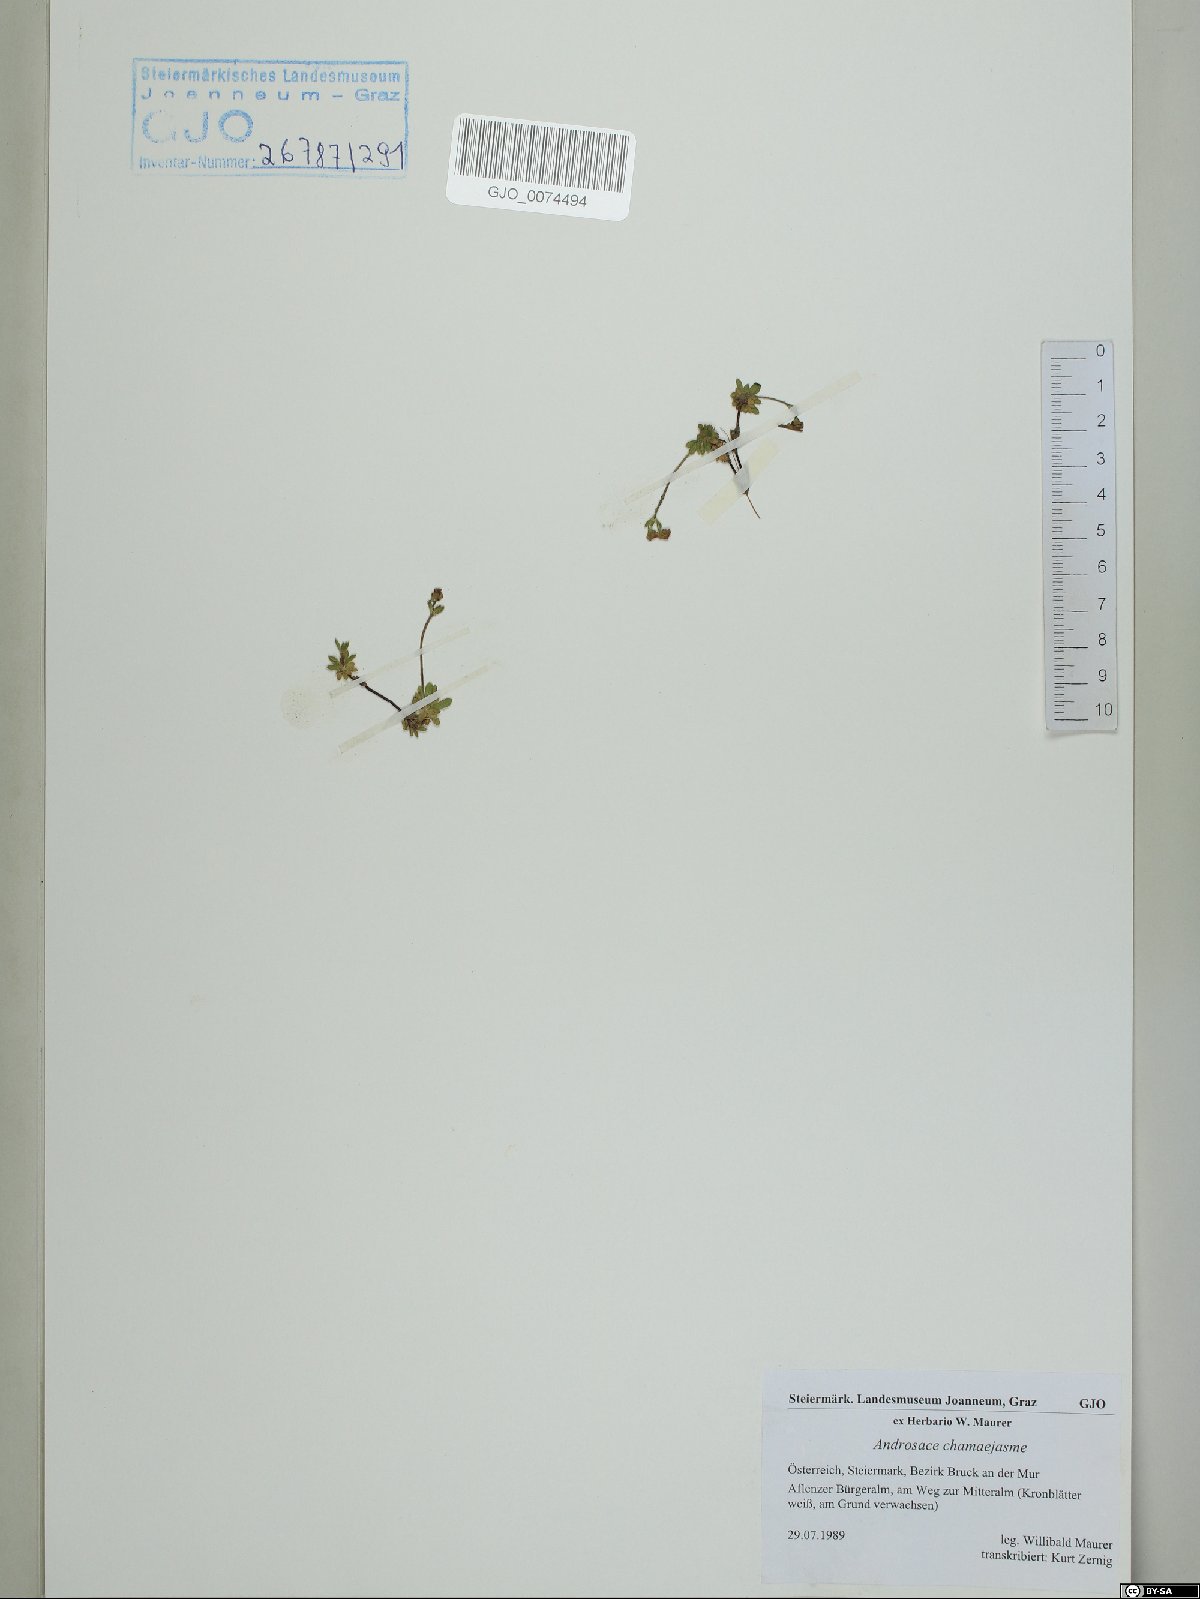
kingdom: Plantae
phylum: Tracheophyta
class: Magnoliopsida
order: Ericales
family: Primulaceae
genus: Androsace
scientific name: Androsace chamaejasme
